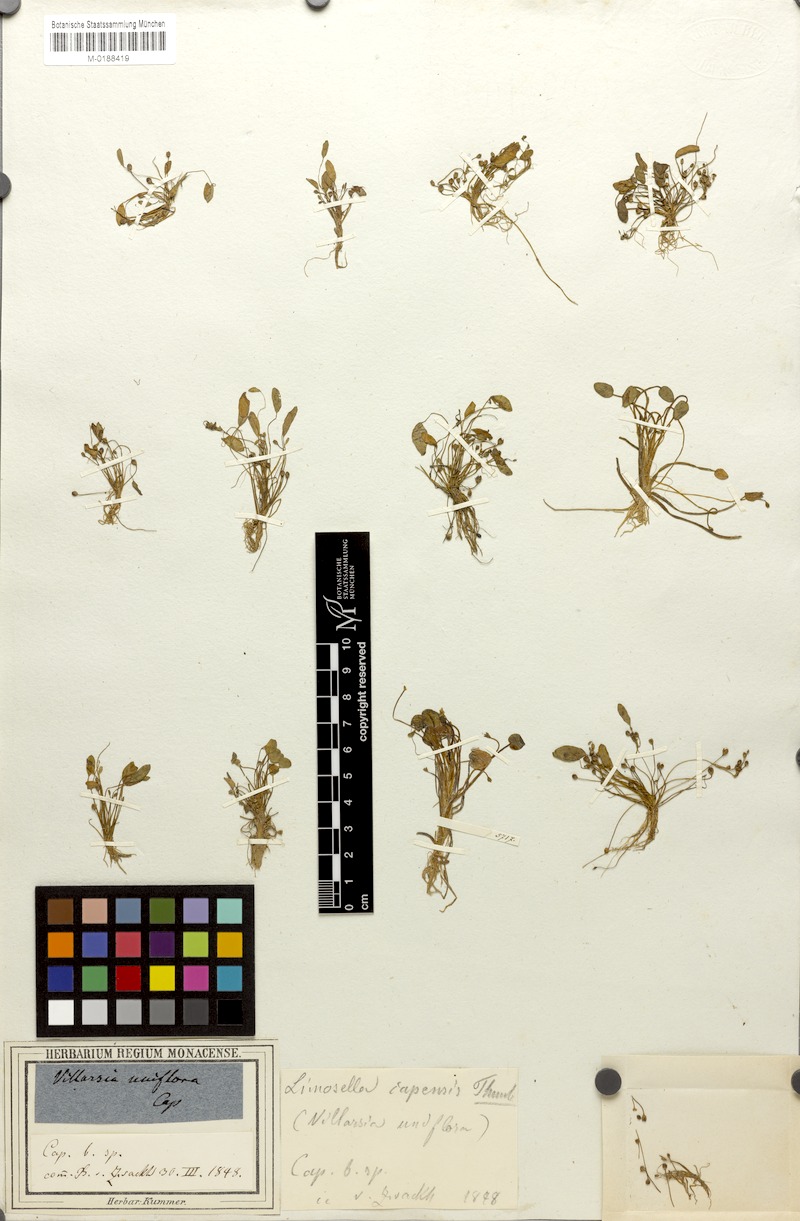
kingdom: Plantae
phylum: Tracheophyta
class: Magnoliopsida
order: Lamiales
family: Scrophulariaceae
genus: Limosella
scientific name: Limosella capensis
